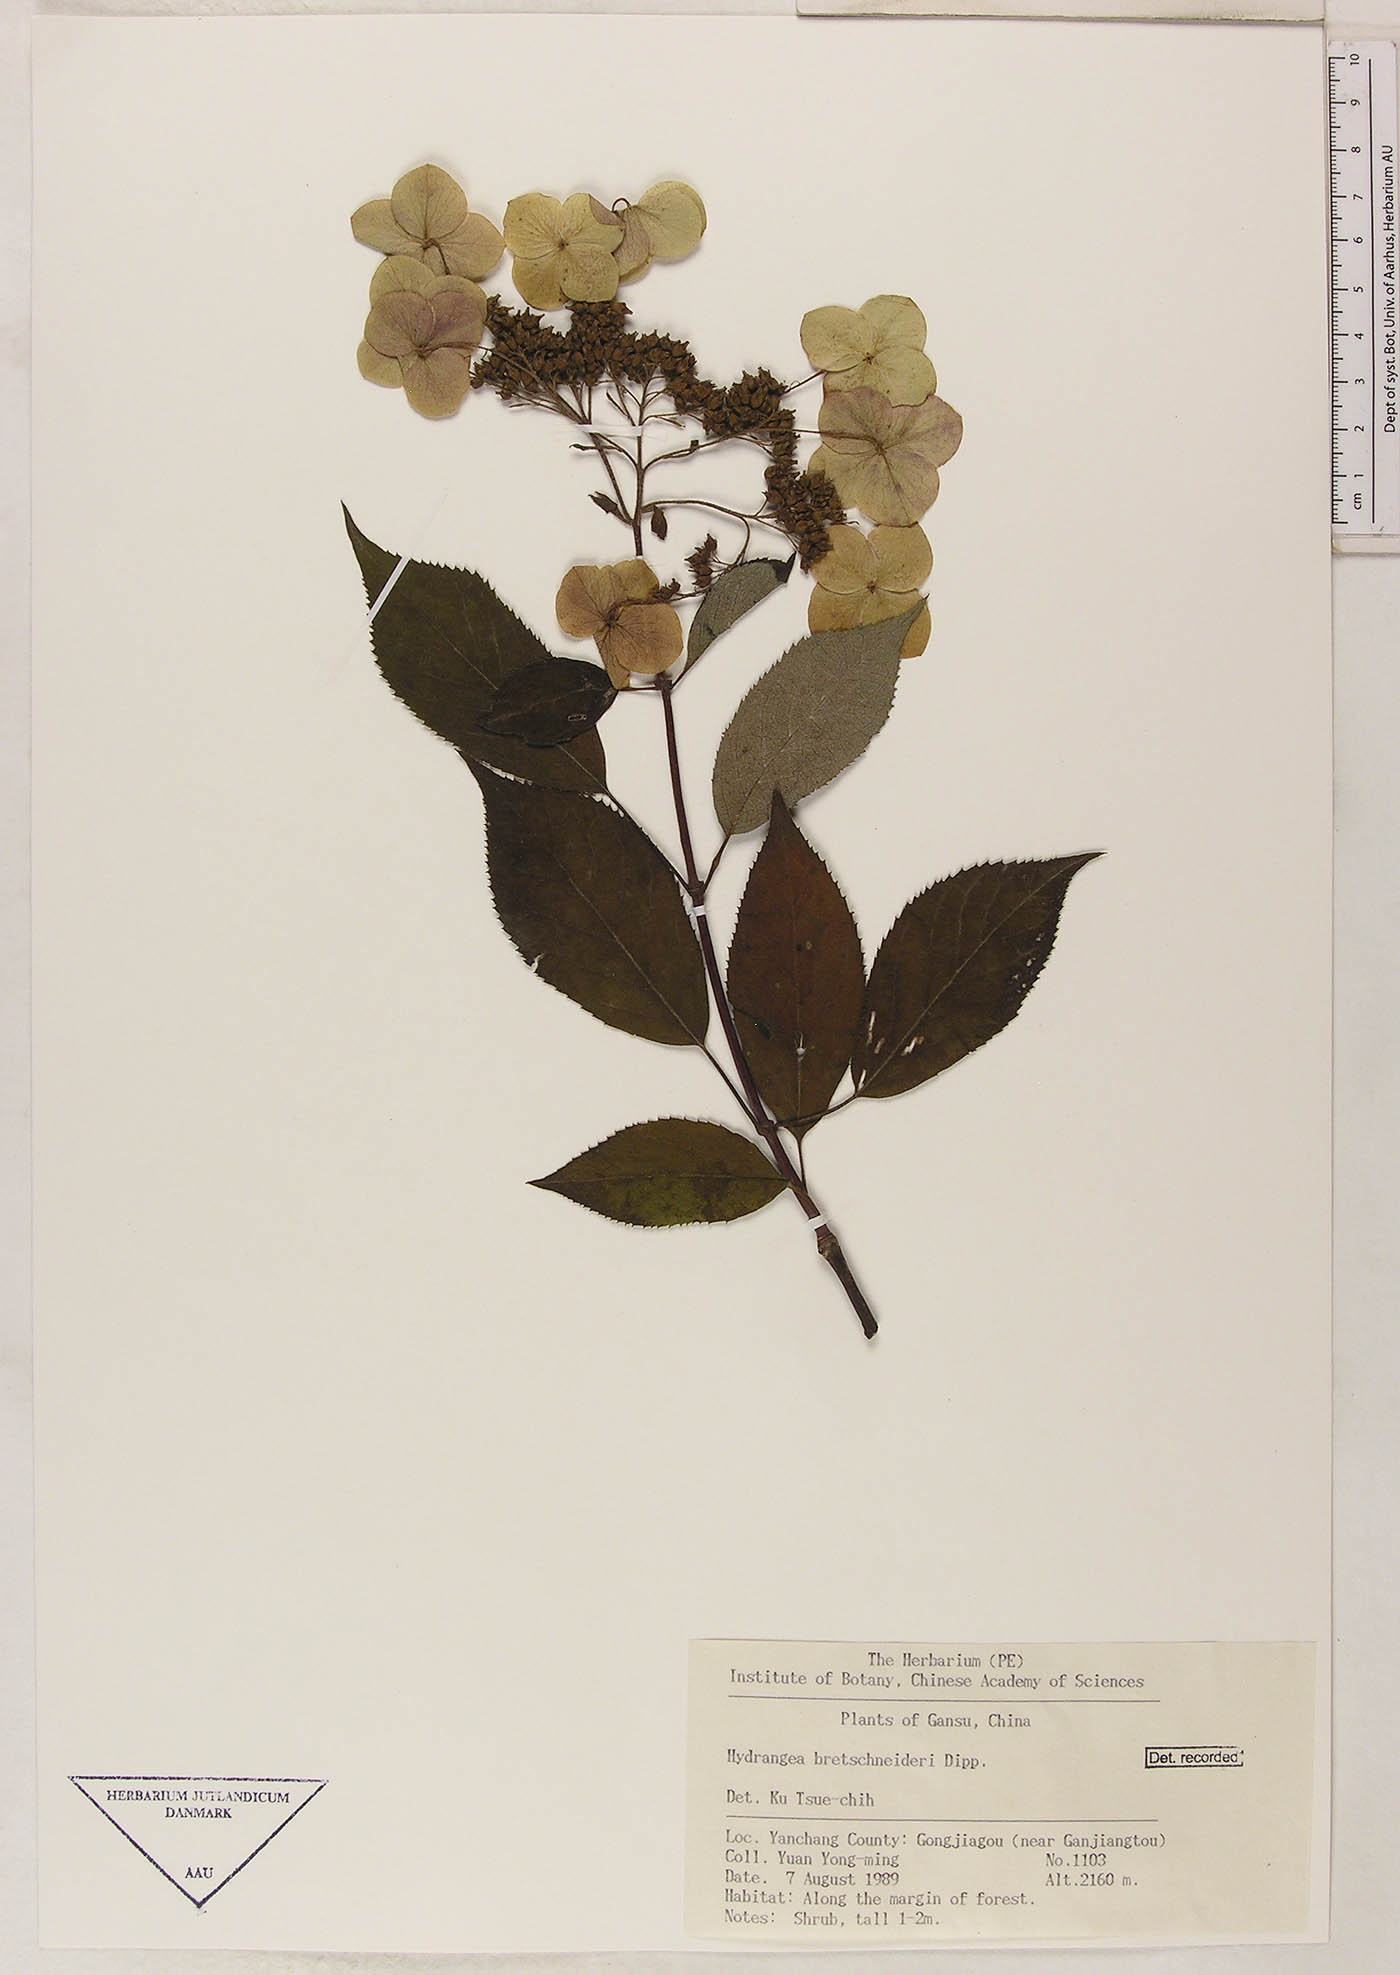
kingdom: Plantae
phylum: Tracheophyta
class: Magnoliopsida
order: Cornales
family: Hydrangeaceae
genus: Hydrangea
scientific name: Hydrangea bretschneideri
